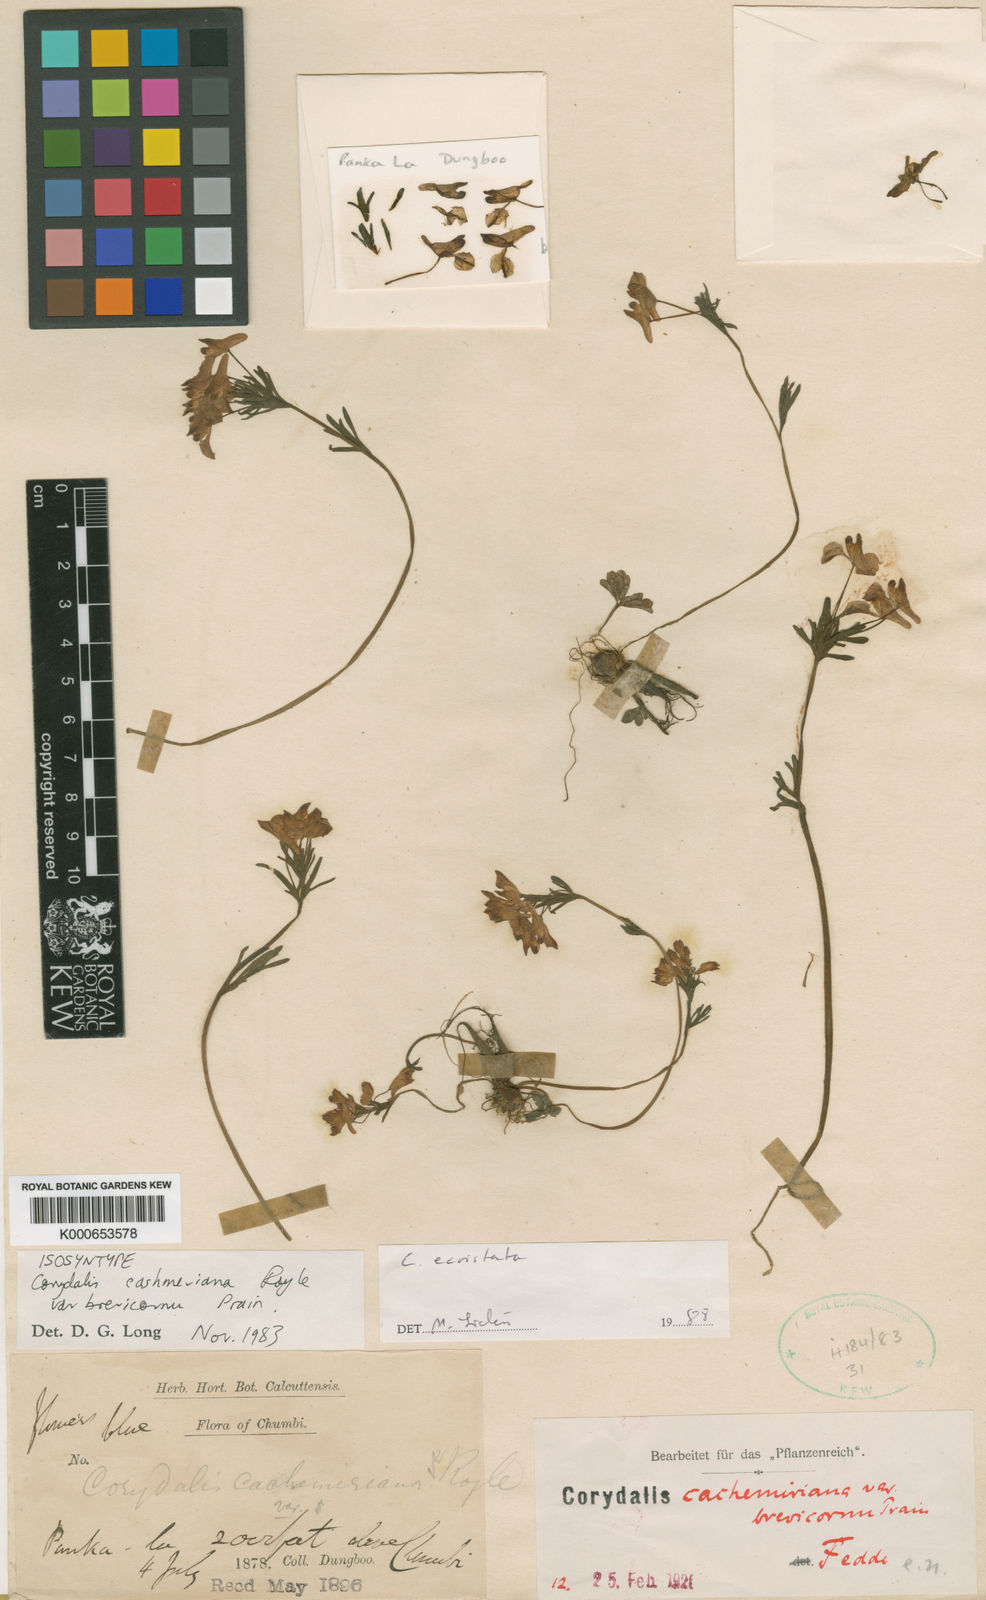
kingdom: Plantae
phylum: Tracheophyta
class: Magnoliopsida
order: Ranunculales
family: Papaveraceae
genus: Corydalis
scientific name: Corydalis cashmeriana
